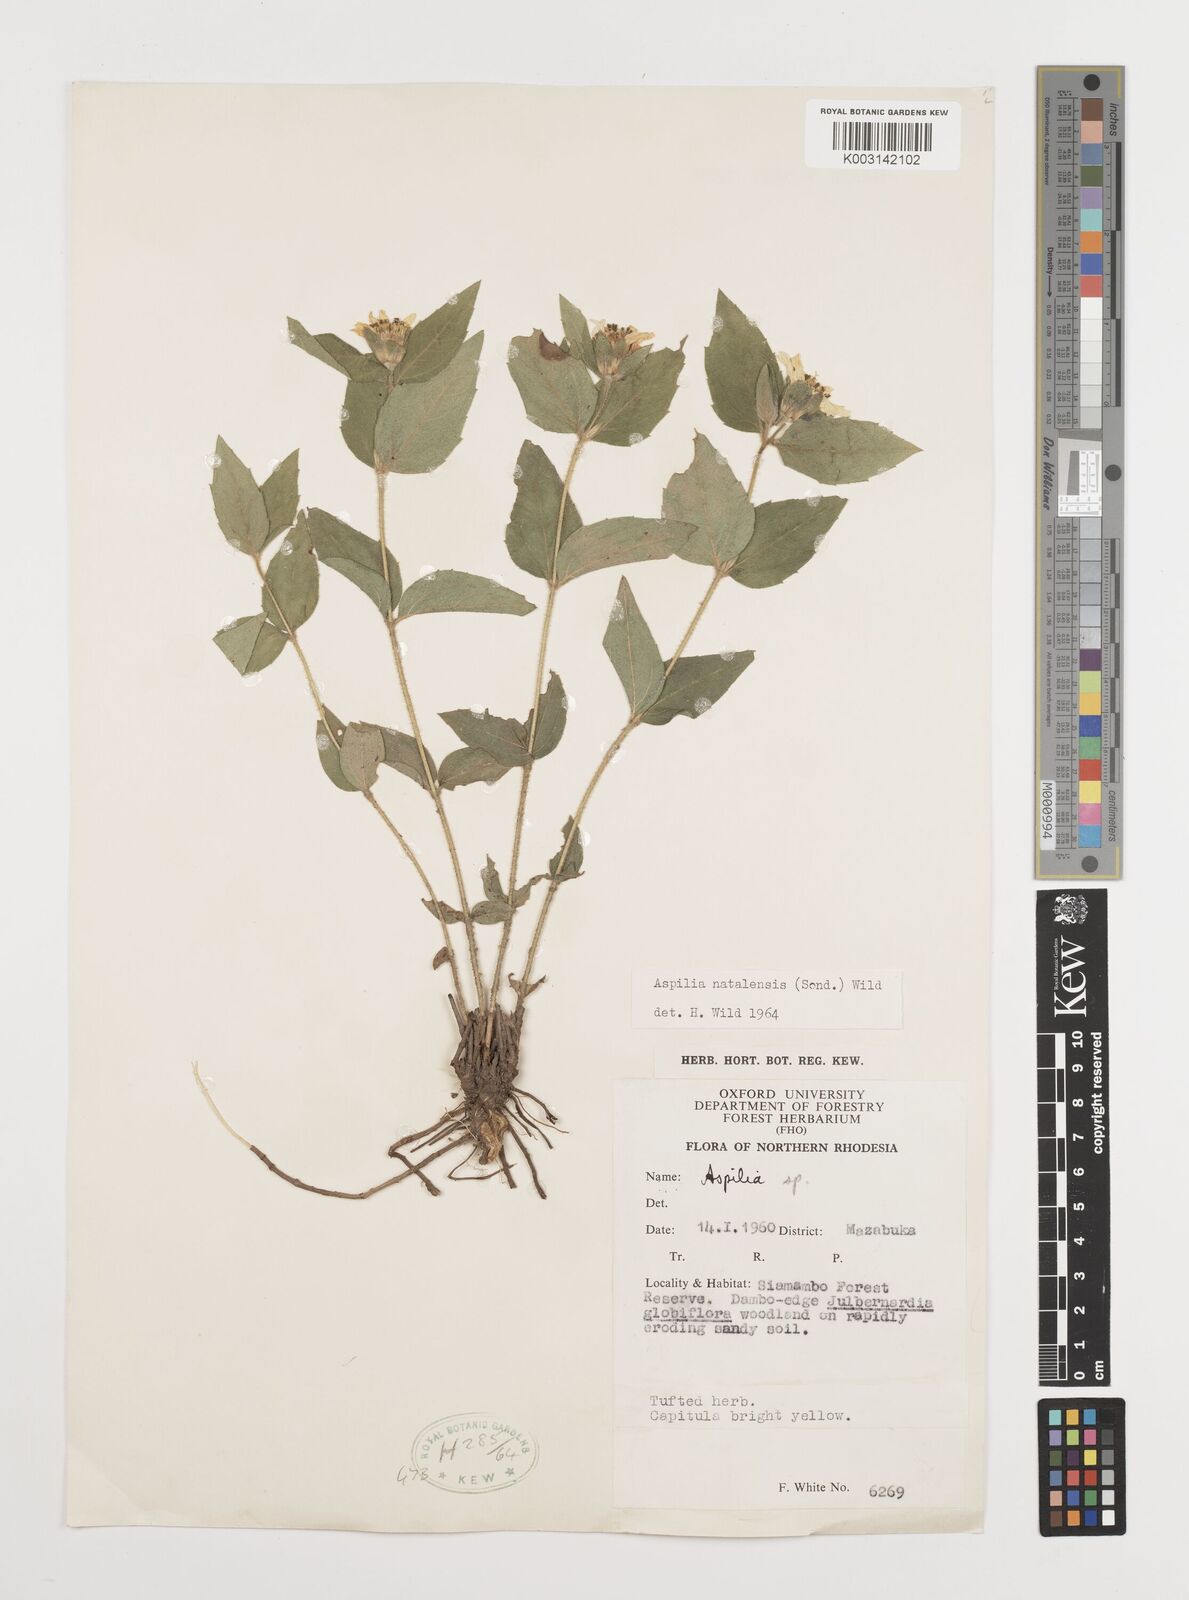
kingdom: Plantae
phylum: Tracheophyta
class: Magnoliopsida
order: Asterales
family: Asteraceae
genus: Aspilia
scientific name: Aspilia angolensis
